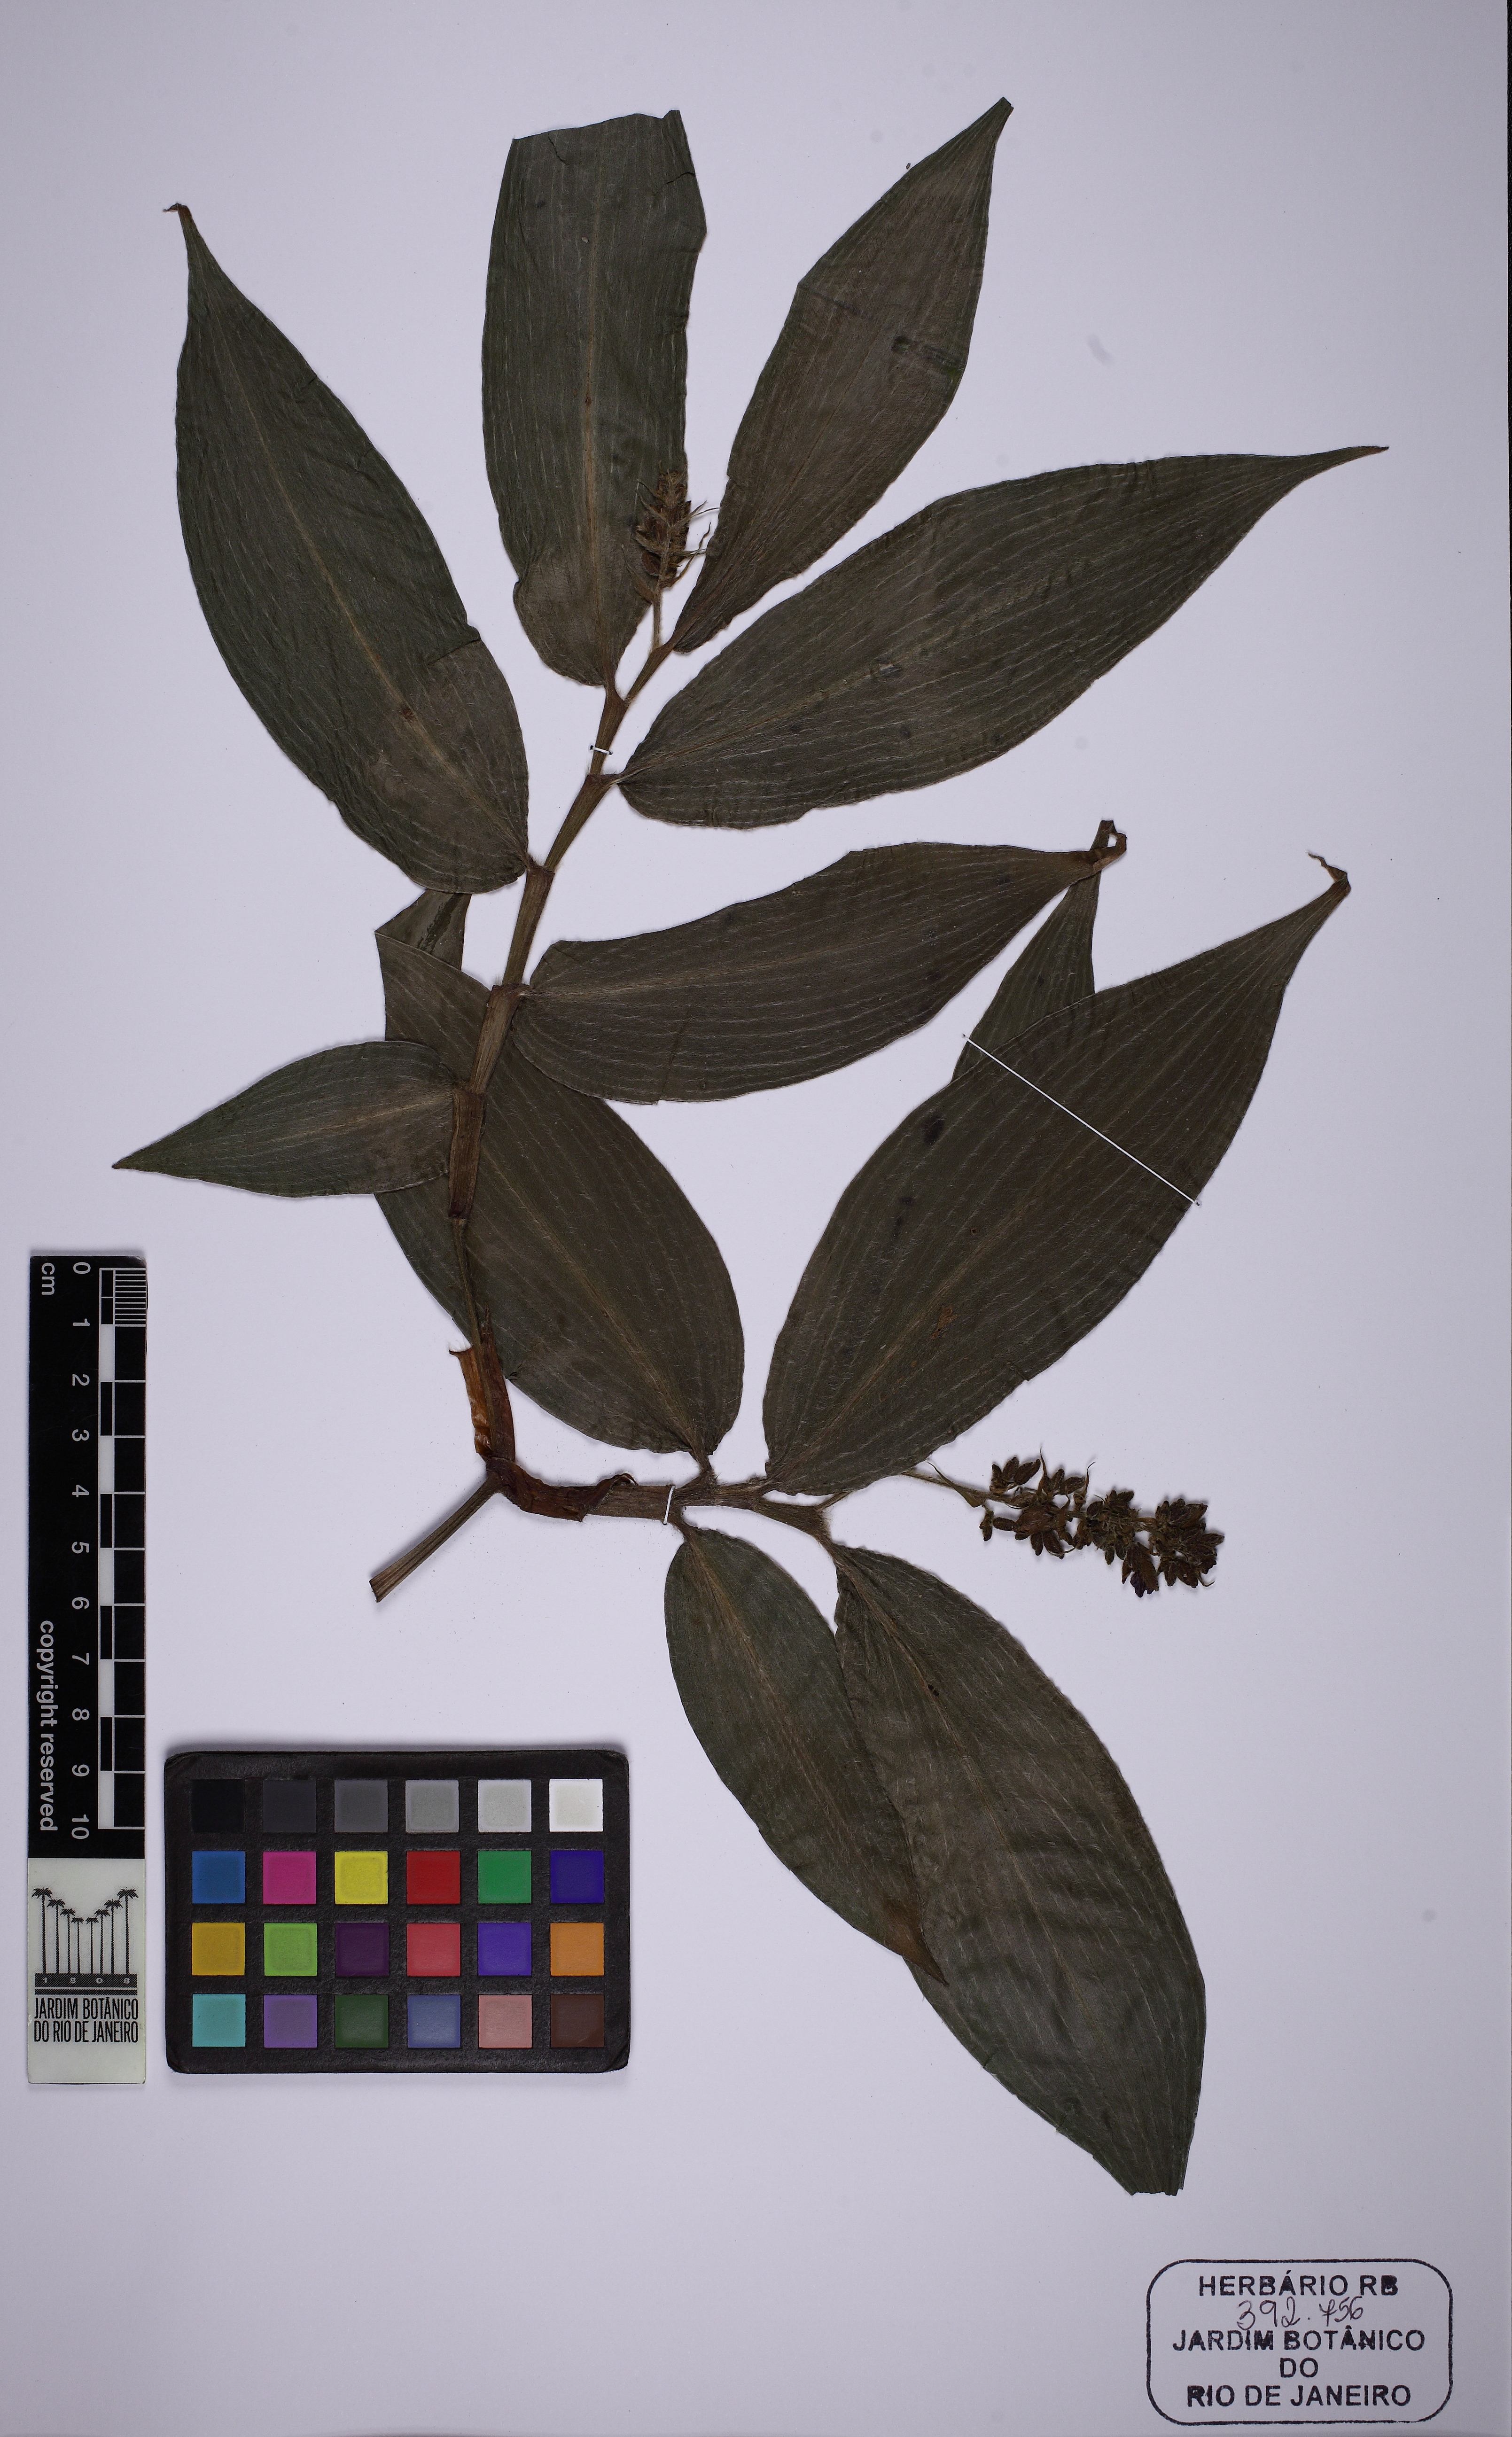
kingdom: Plantae
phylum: Tracheophyta
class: Liliopsida
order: Commelinales
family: Commelinaceae
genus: Dichorisandra
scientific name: Dichorisandra tejucensis
